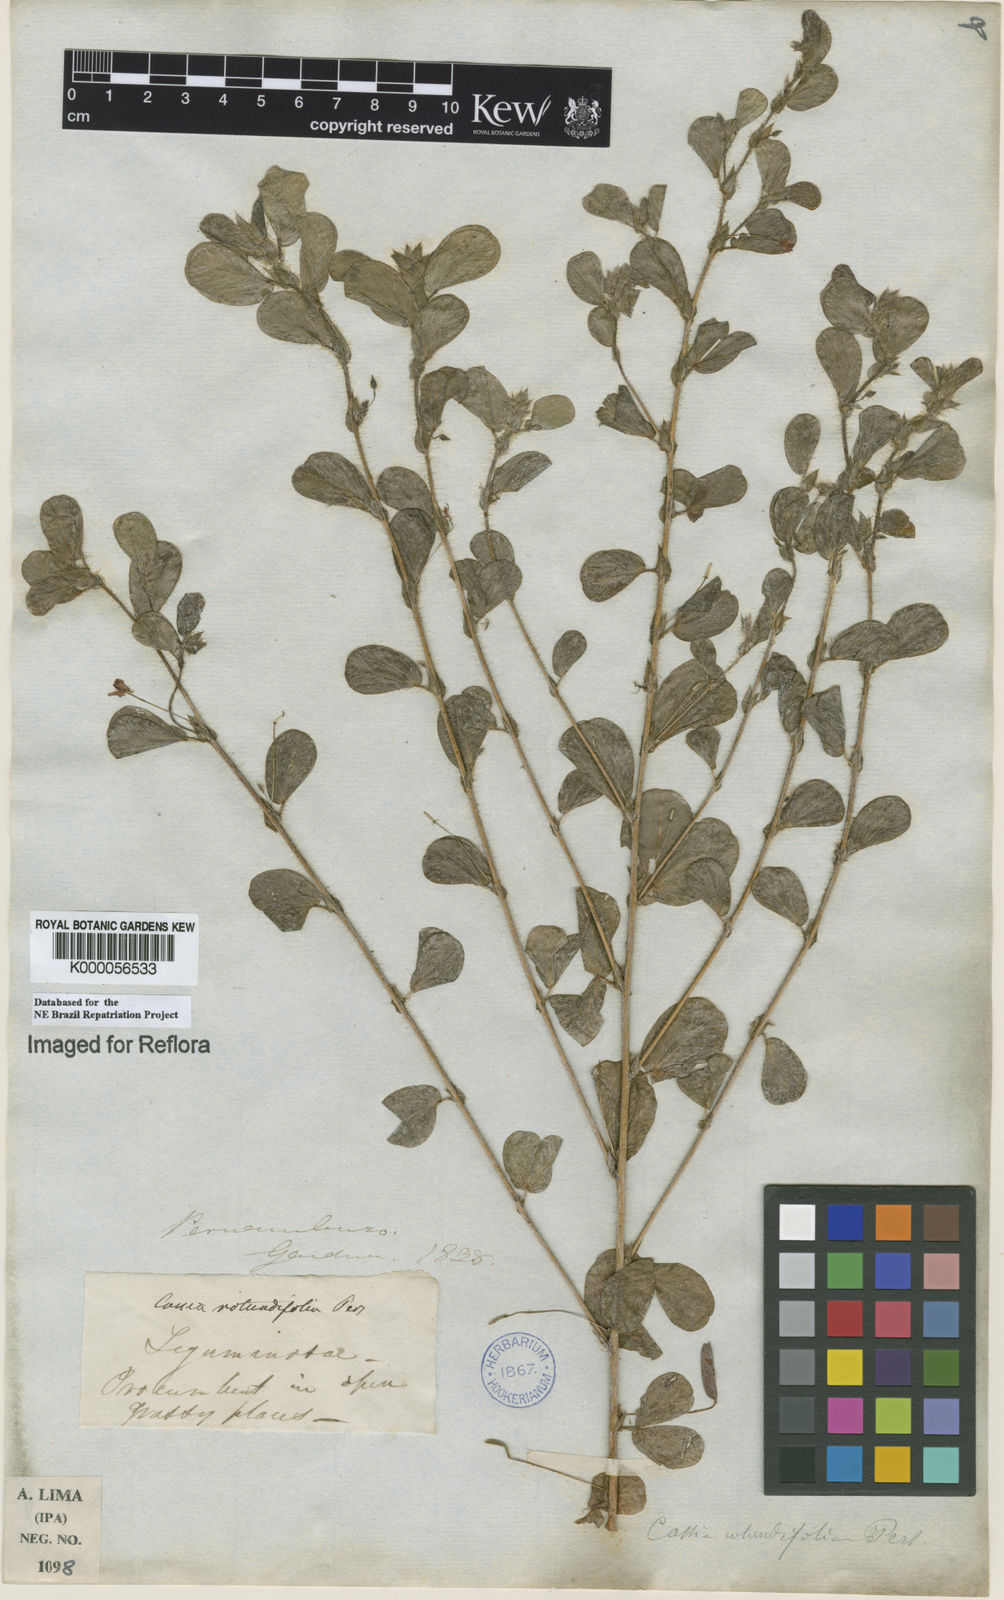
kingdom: Plantae
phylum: Tracheophyta
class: Magnoliopsida
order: Fabales
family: Fabaceae
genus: Chamaecrista
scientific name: Chamaecrista rotundifolia
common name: Round-leaf cassia
